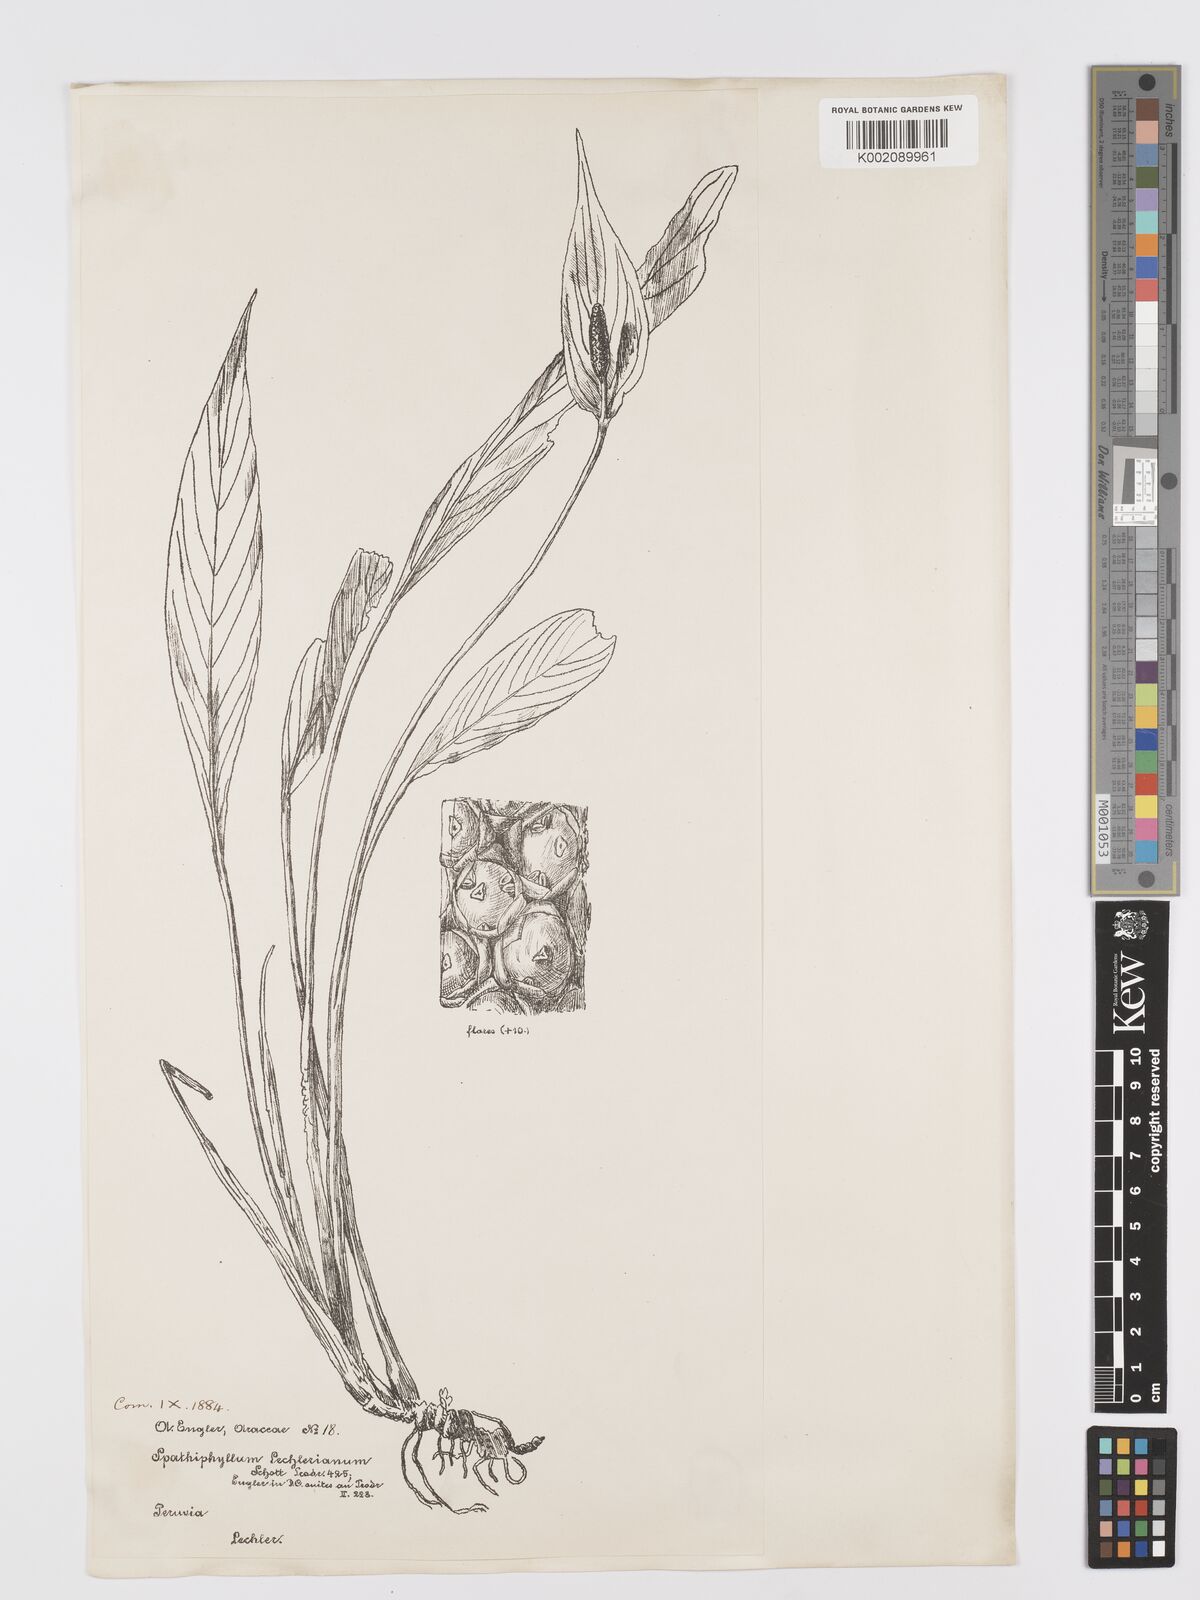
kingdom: Plantae
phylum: Tracheophyta
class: Liliopsida
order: Alismatales
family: Araceae
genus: Spathiphyllum
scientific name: Spathiphyllum lechlerianum
